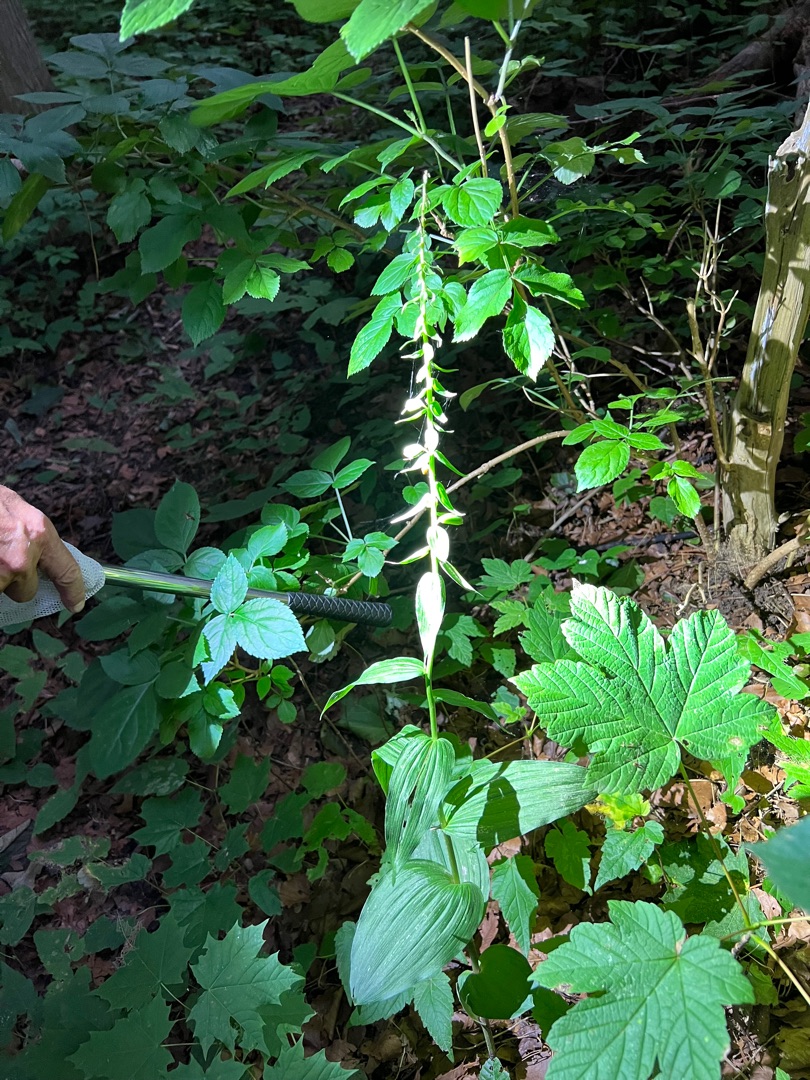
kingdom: Plantae
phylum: Tracheophyta
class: Liliopsida
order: Asparagales
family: Orchidaceae
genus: Epipactis
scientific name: Epipactis helleborine
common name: Skov-hullæbe
